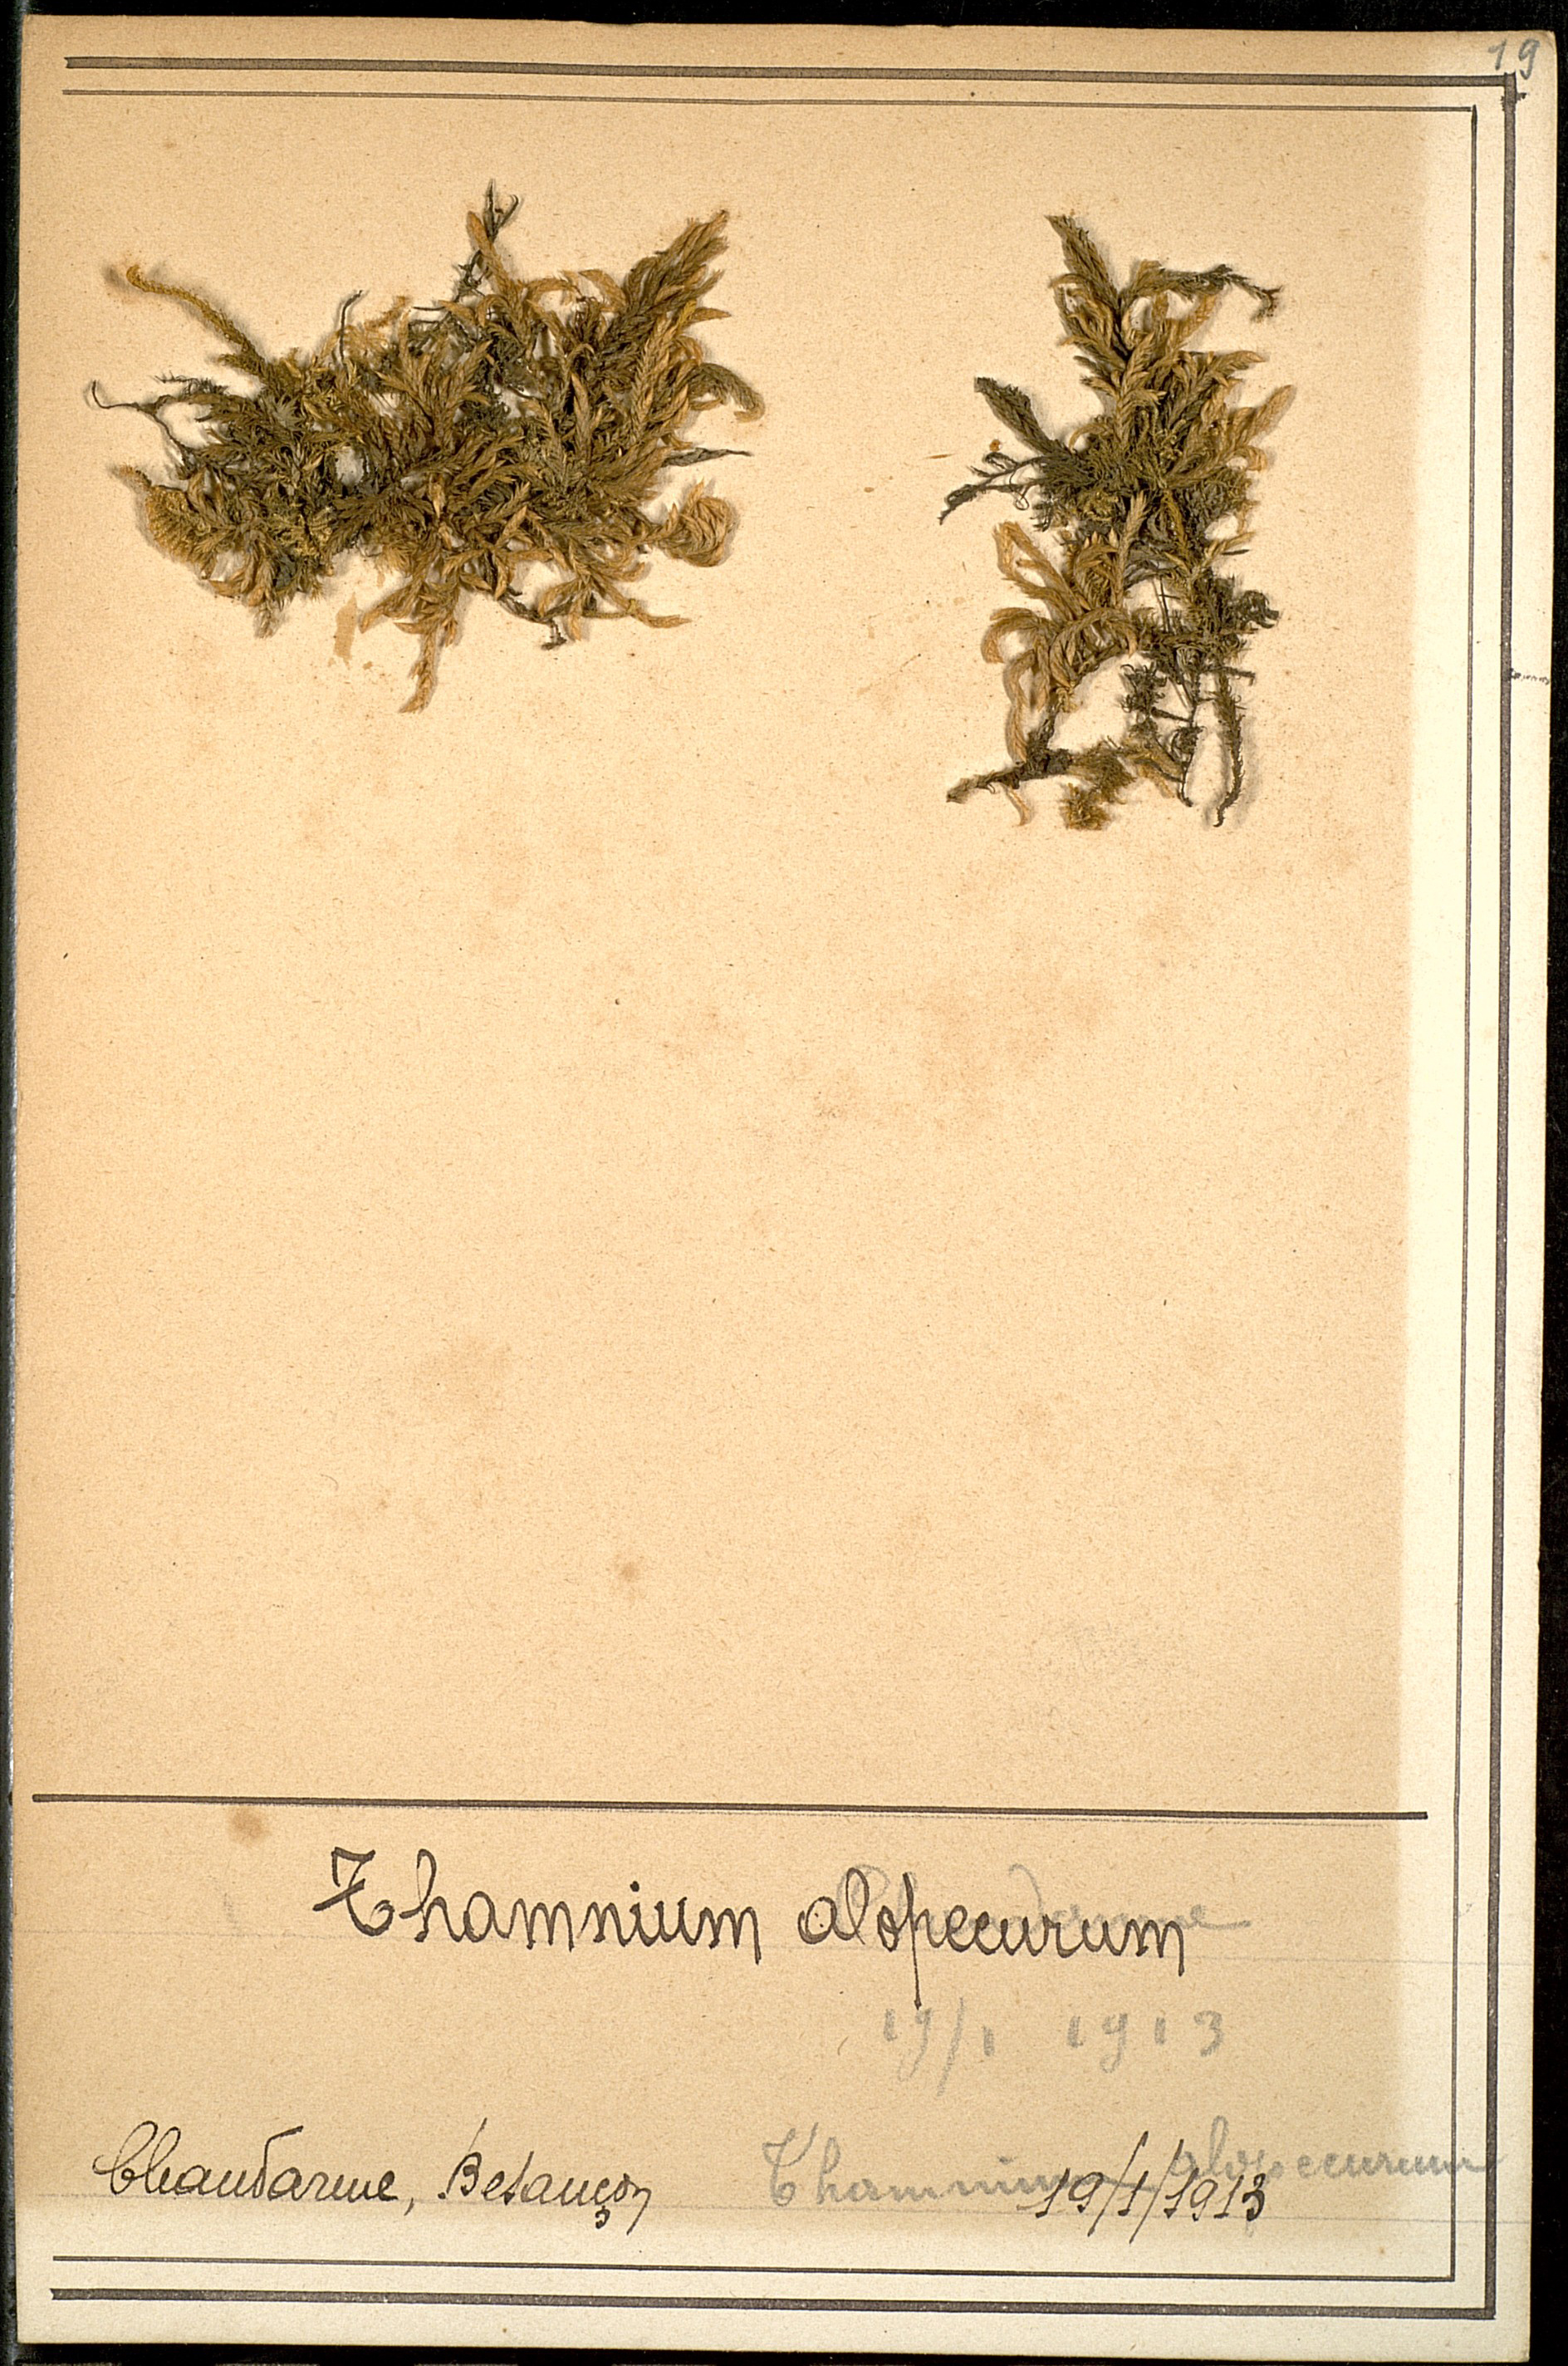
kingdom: Plantae
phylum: Bryophyta
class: Bryopsida
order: Hypnales
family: Neckeraceae
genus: Thamnobryum
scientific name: Thamnobryum alopecurum
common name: Fox-tail feather-moss
